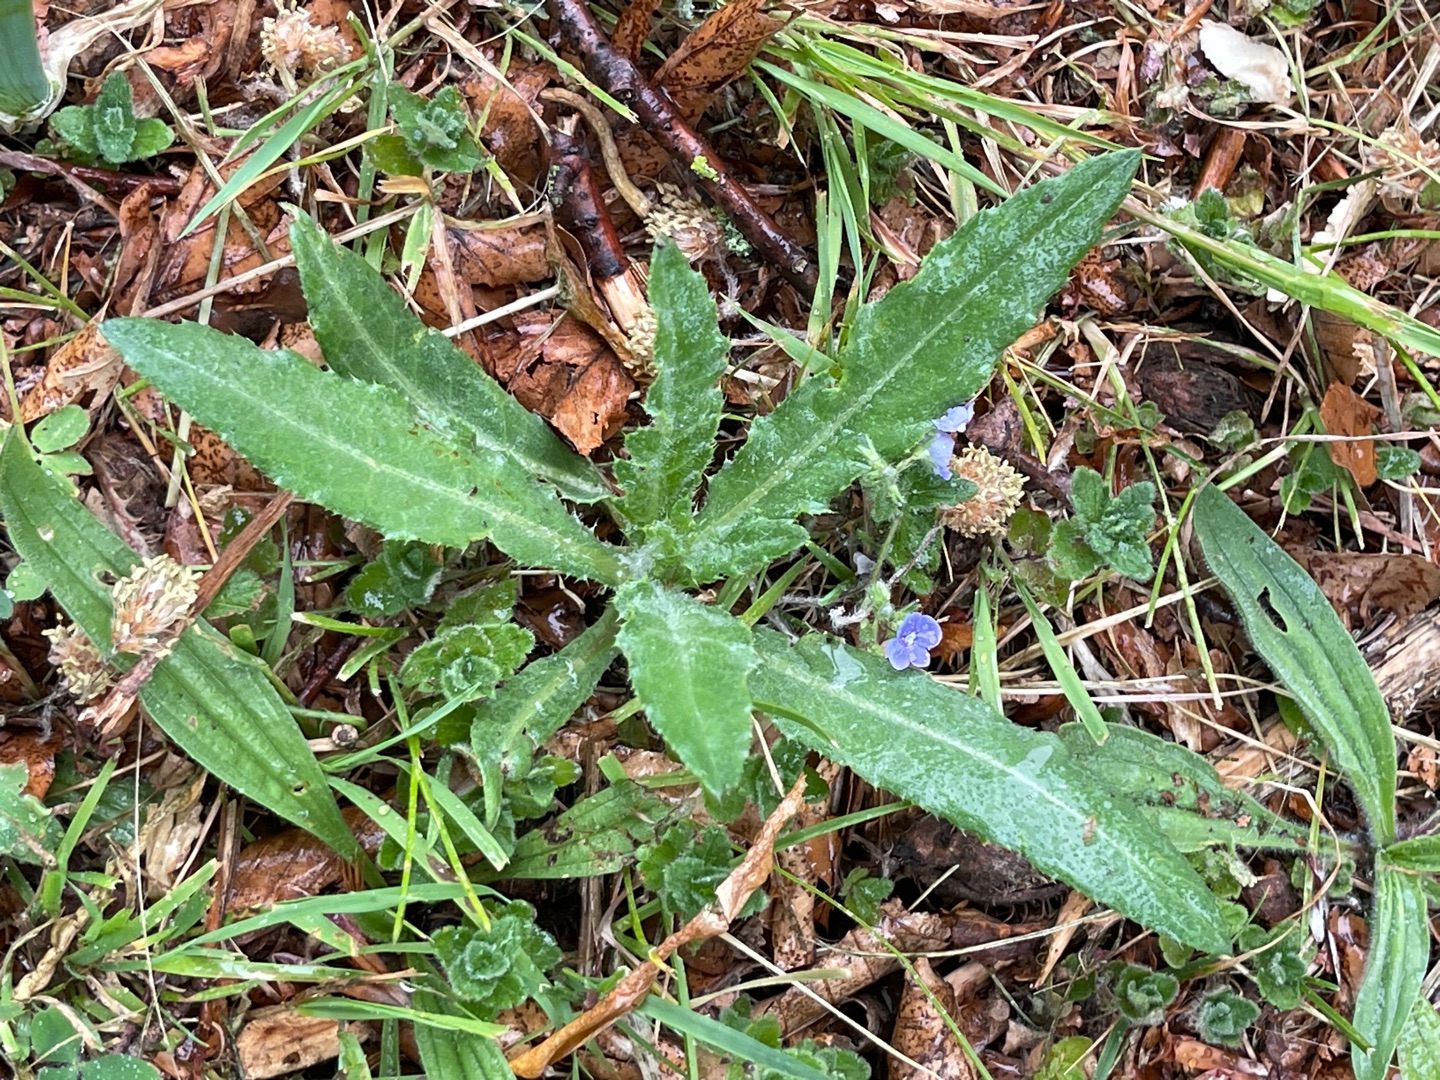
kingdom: Plantae
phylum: Tracheophyta
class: Magnoliopsida
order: Asterales
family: Asteraceae
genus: Cirsium
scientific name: Cirsium arvense
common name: Ager-tidsel
